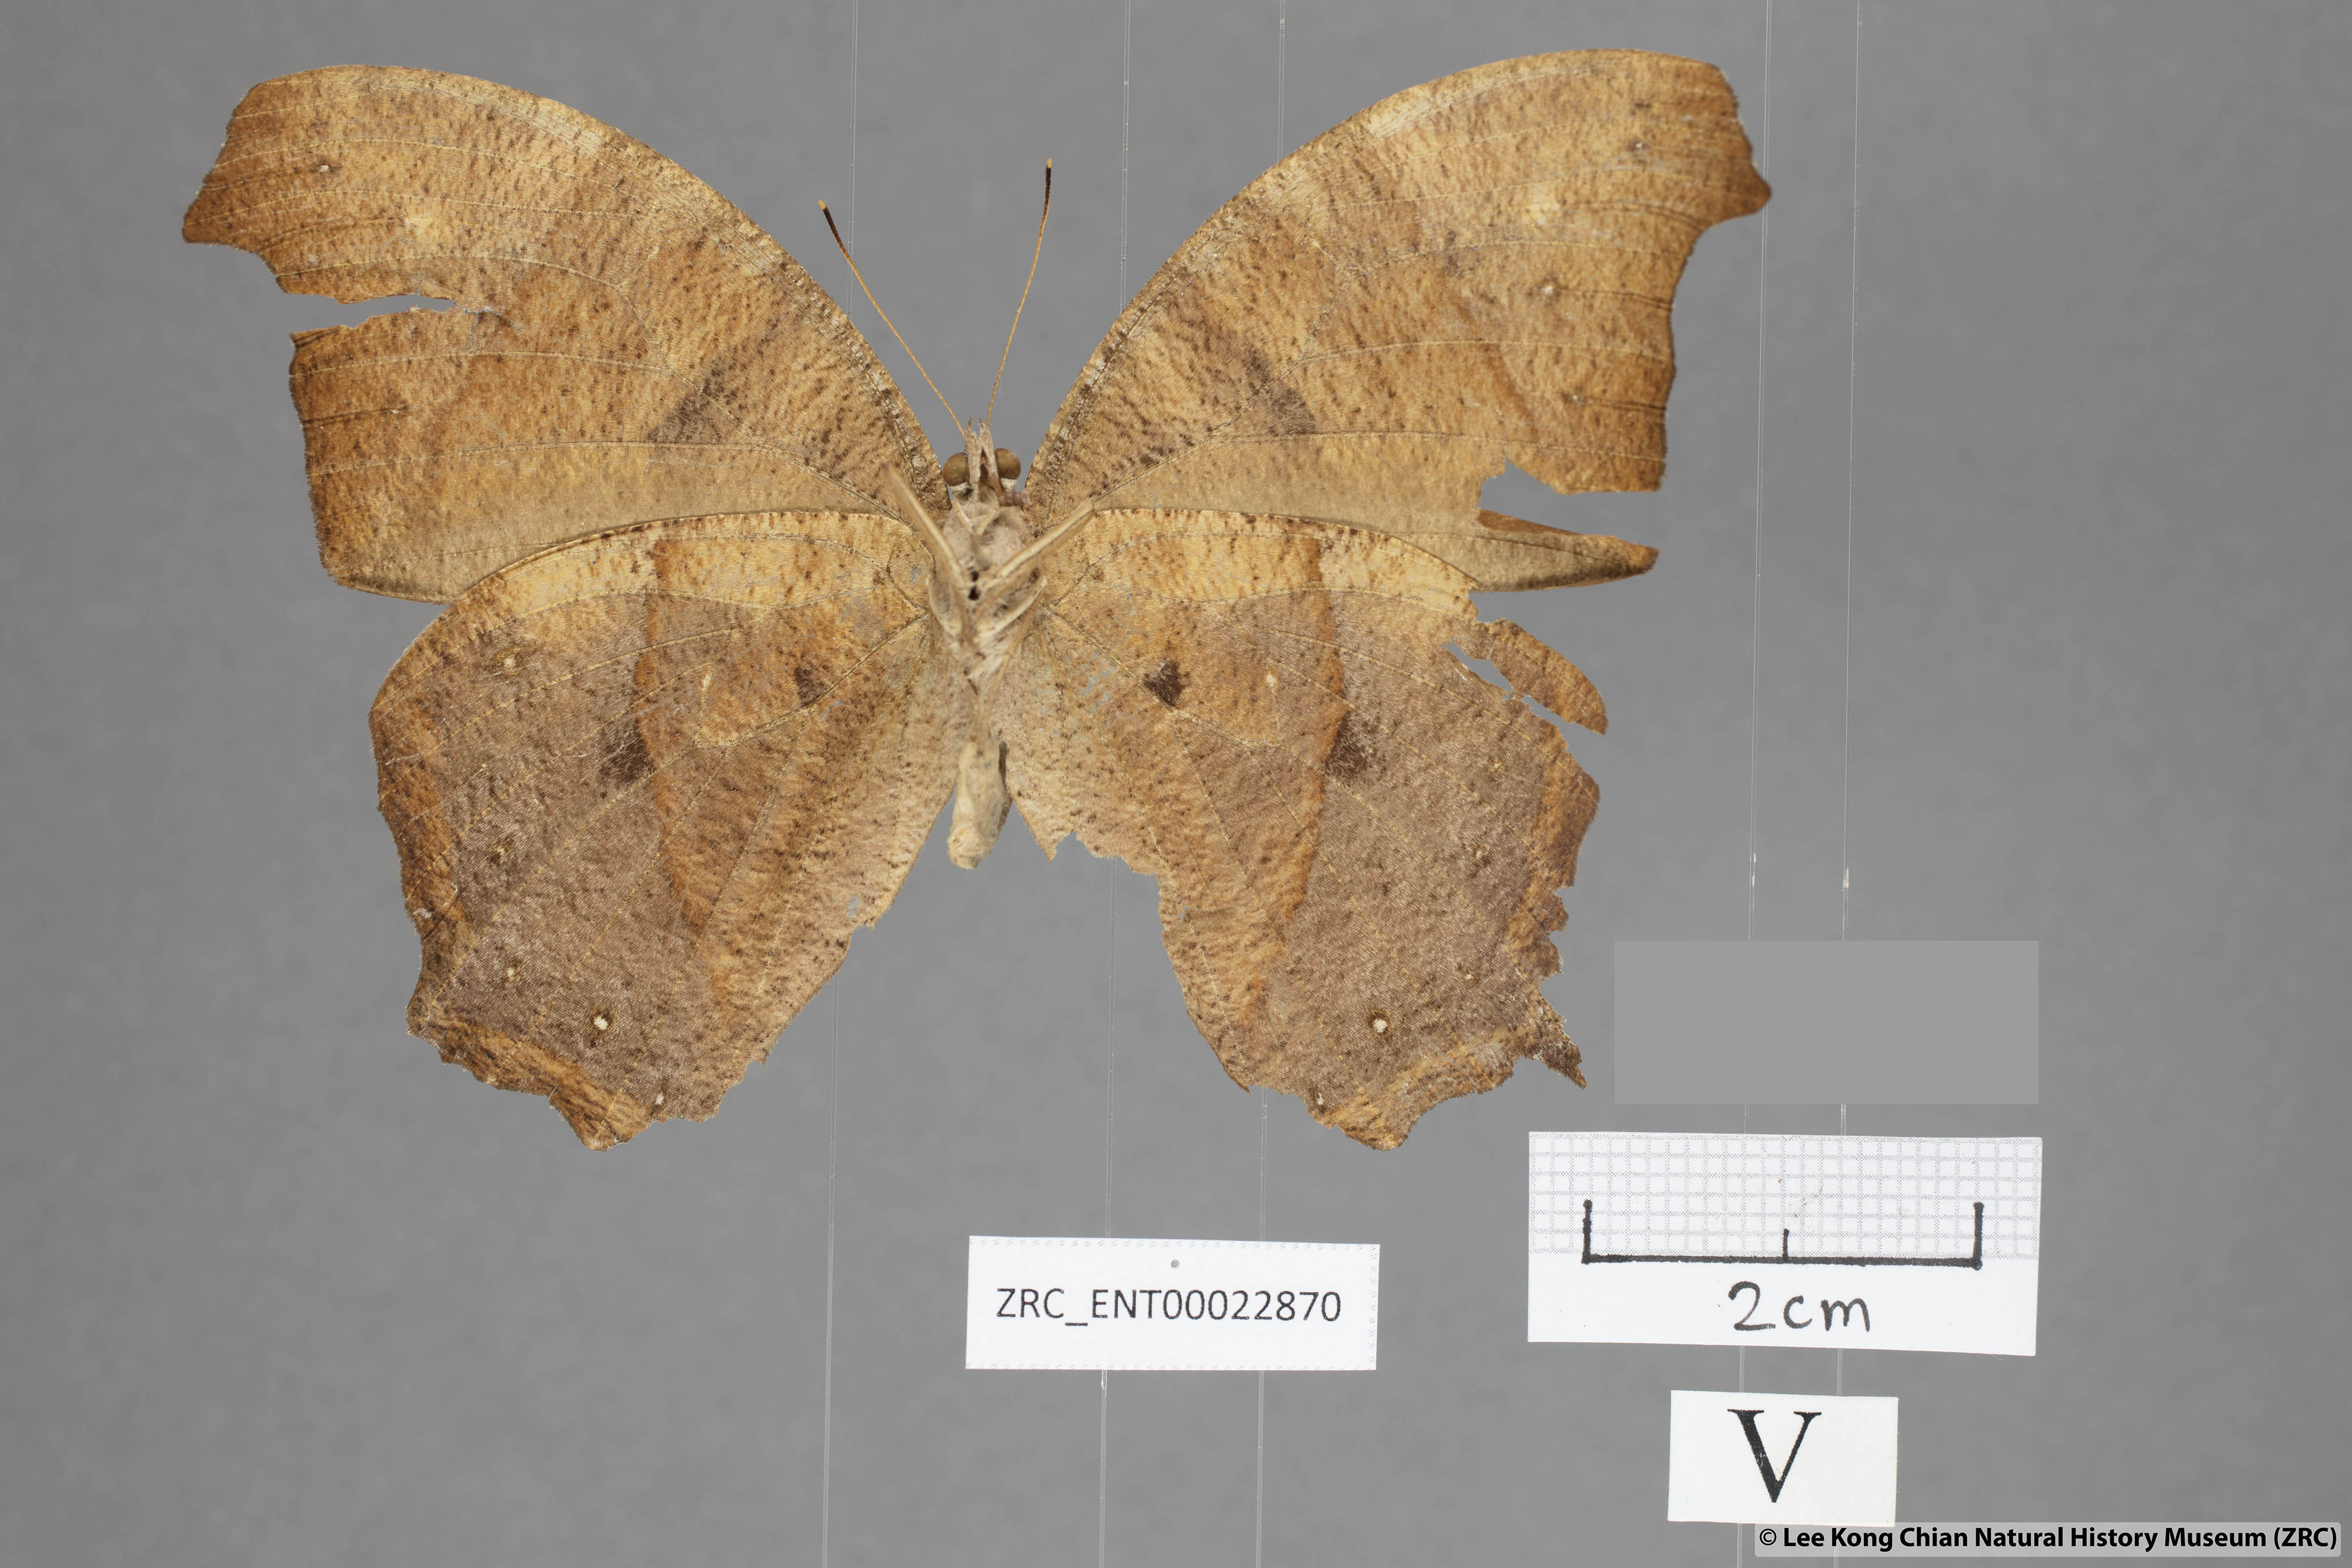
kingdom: Animalia
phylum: Arthropoda
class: Insecta
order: Lepidoptera
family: Nymphalidae
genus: Melanitis
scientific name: Melanitis zitenius
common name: Great evening brown
